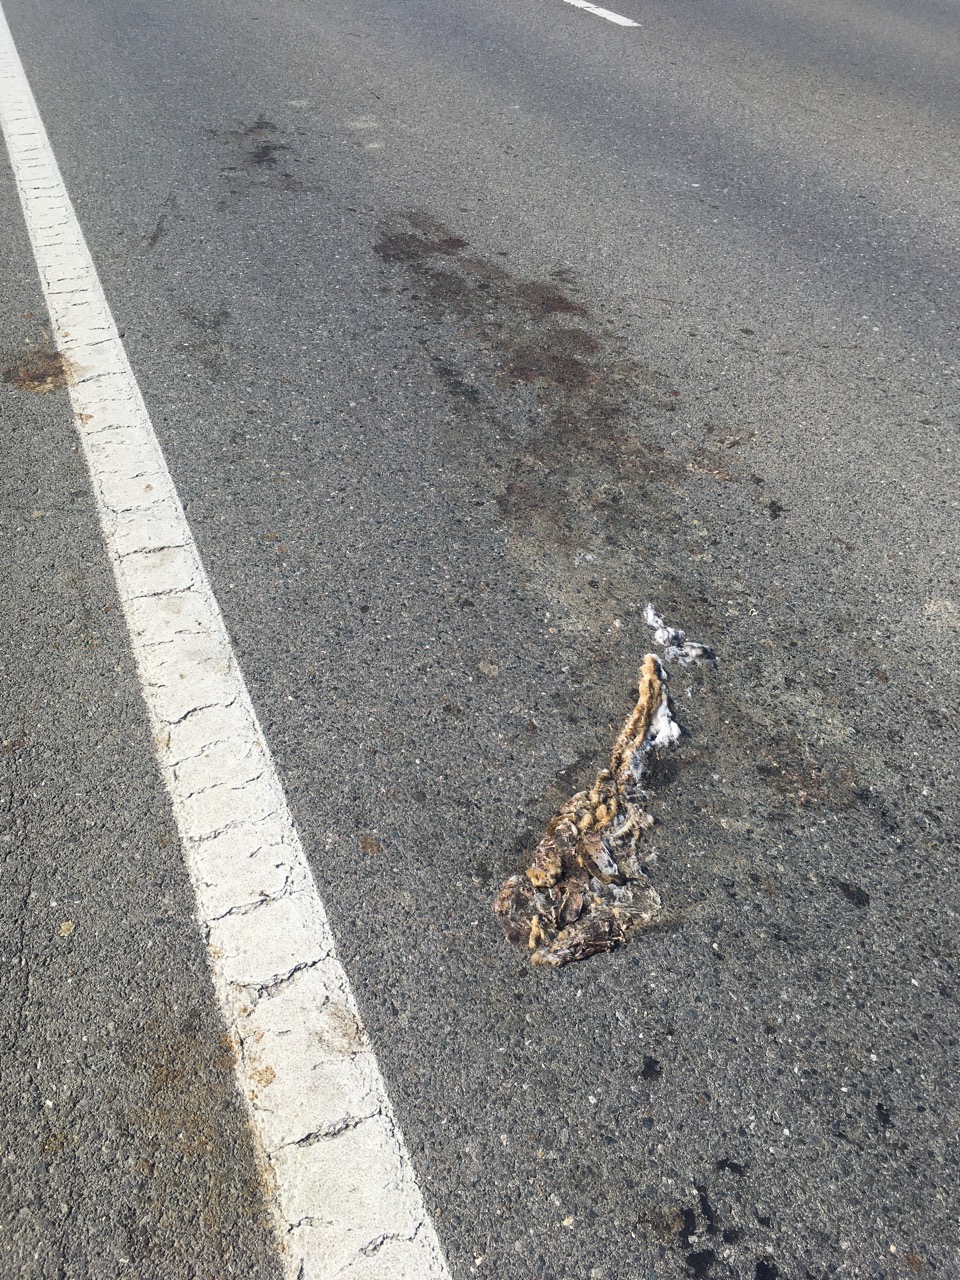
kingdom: Animalia
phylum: Chordata
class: Mammalia
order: Carnivora
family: Canidae
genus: Vulpes
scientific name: Vulpes vulpes
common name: Red fox
